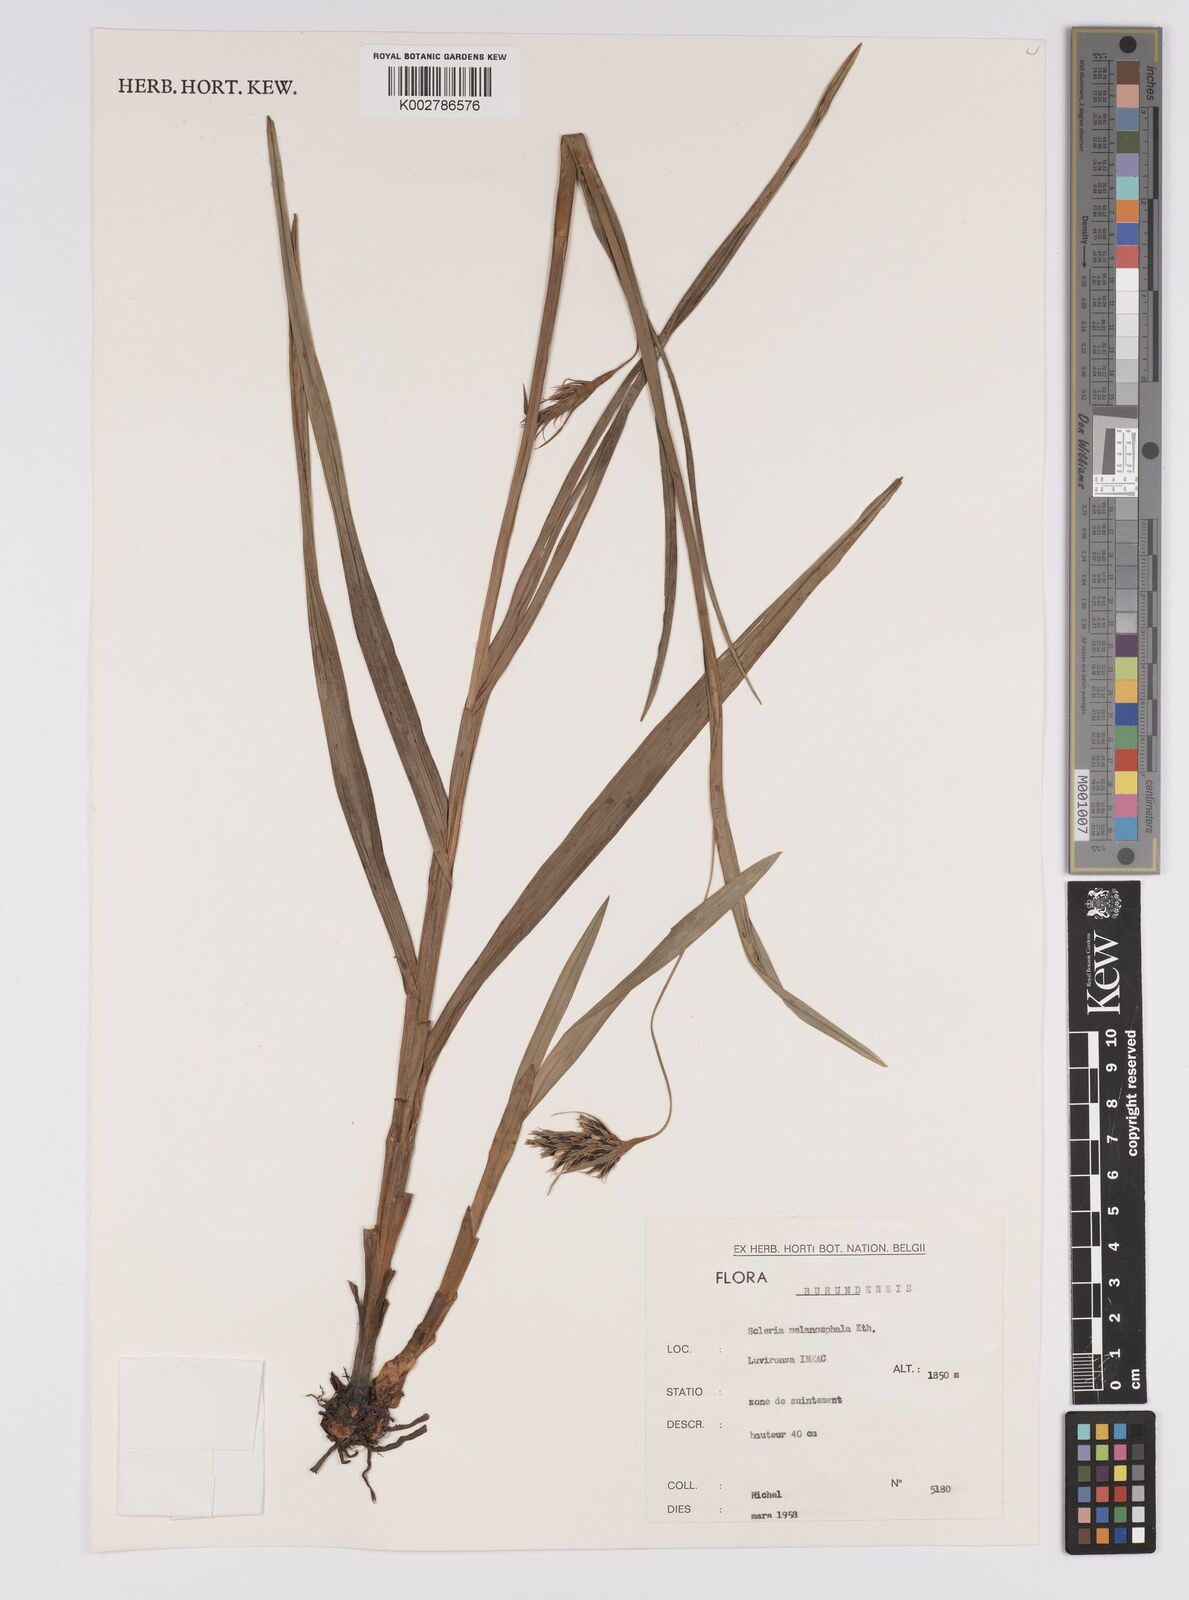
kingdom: Plantae
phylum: Tracheophyta
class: Liliopsida
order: Poales
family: Cyperaceae
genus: Scleria
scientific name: Scleria melanomphala
